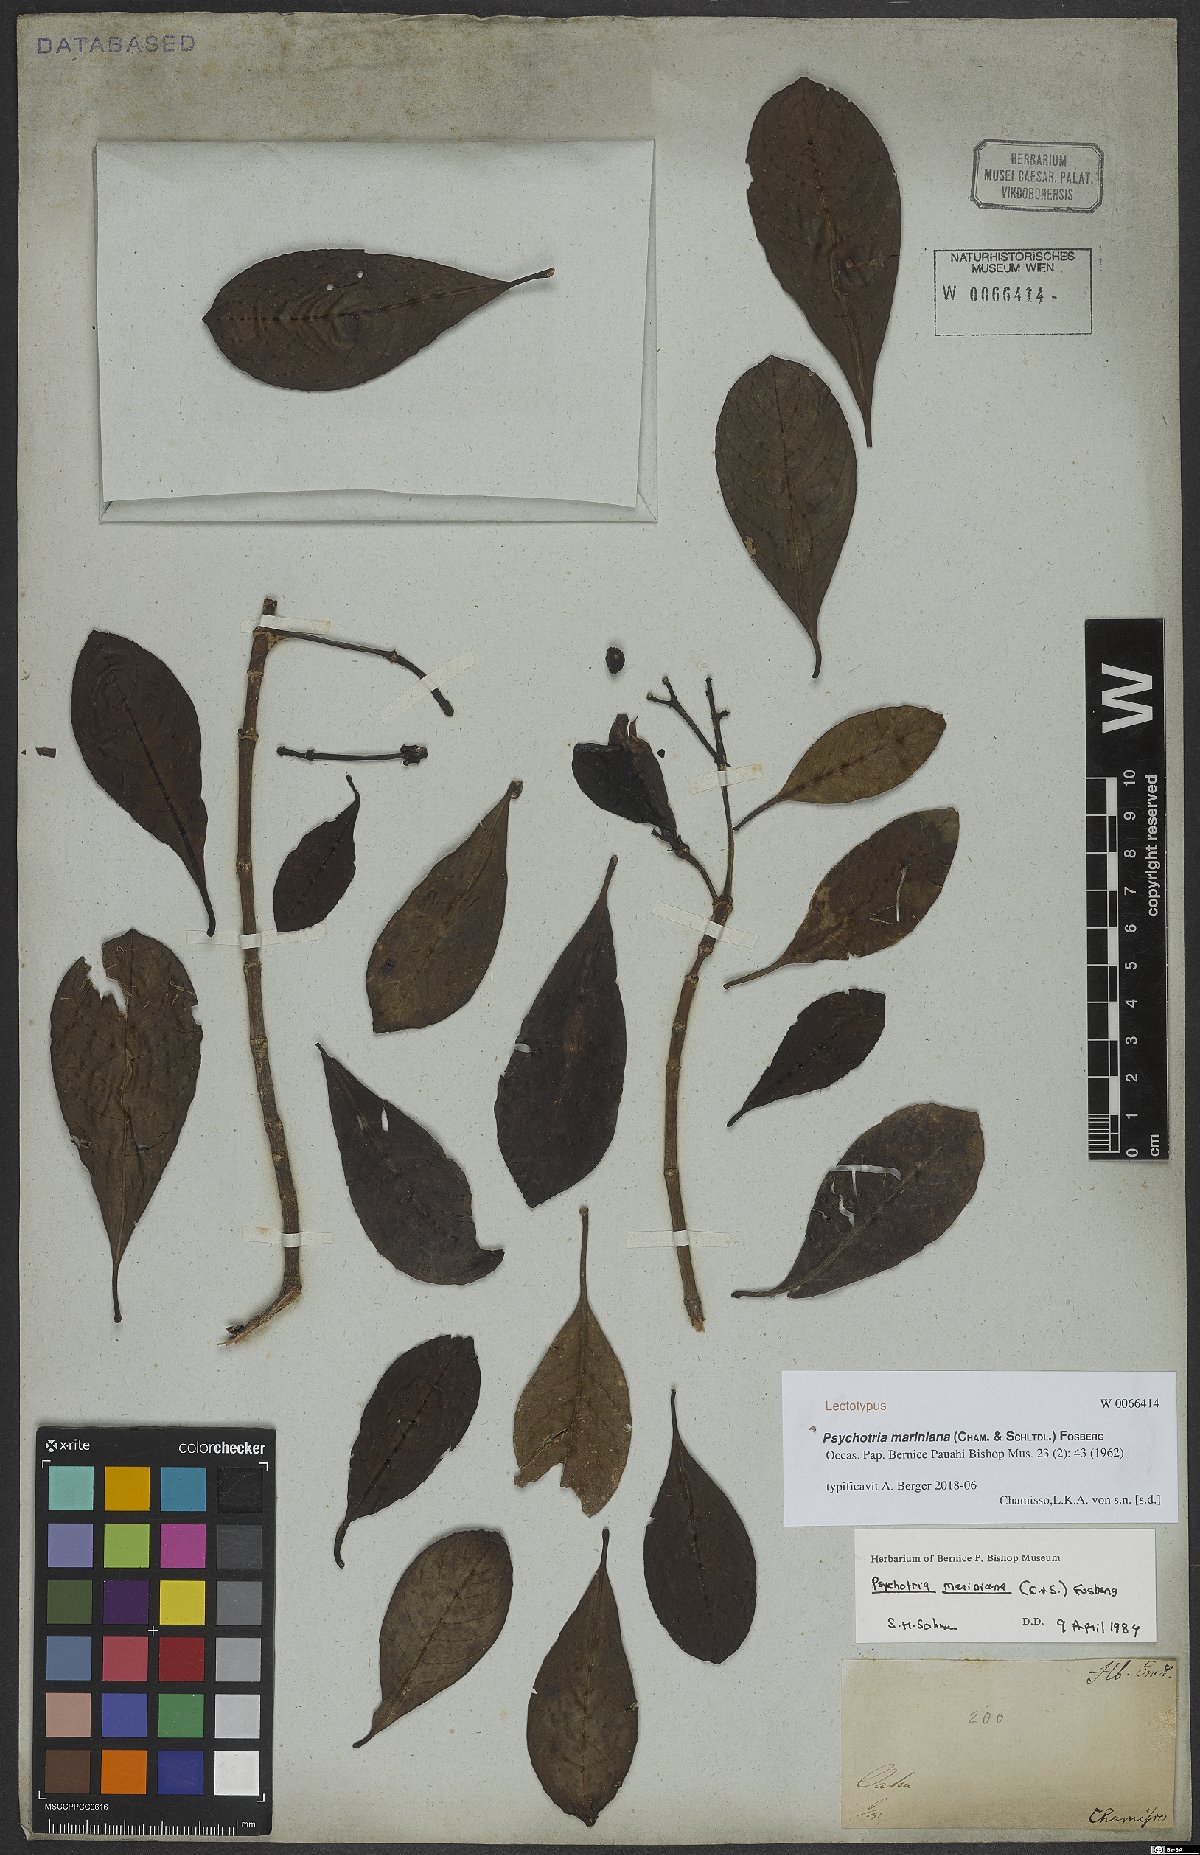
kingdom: Plantae
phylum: Tracheophyta
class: Magnoliopsida
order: Gentianales
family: Rubiaceae
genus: Psychotria
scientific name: Psychotria mariniana
